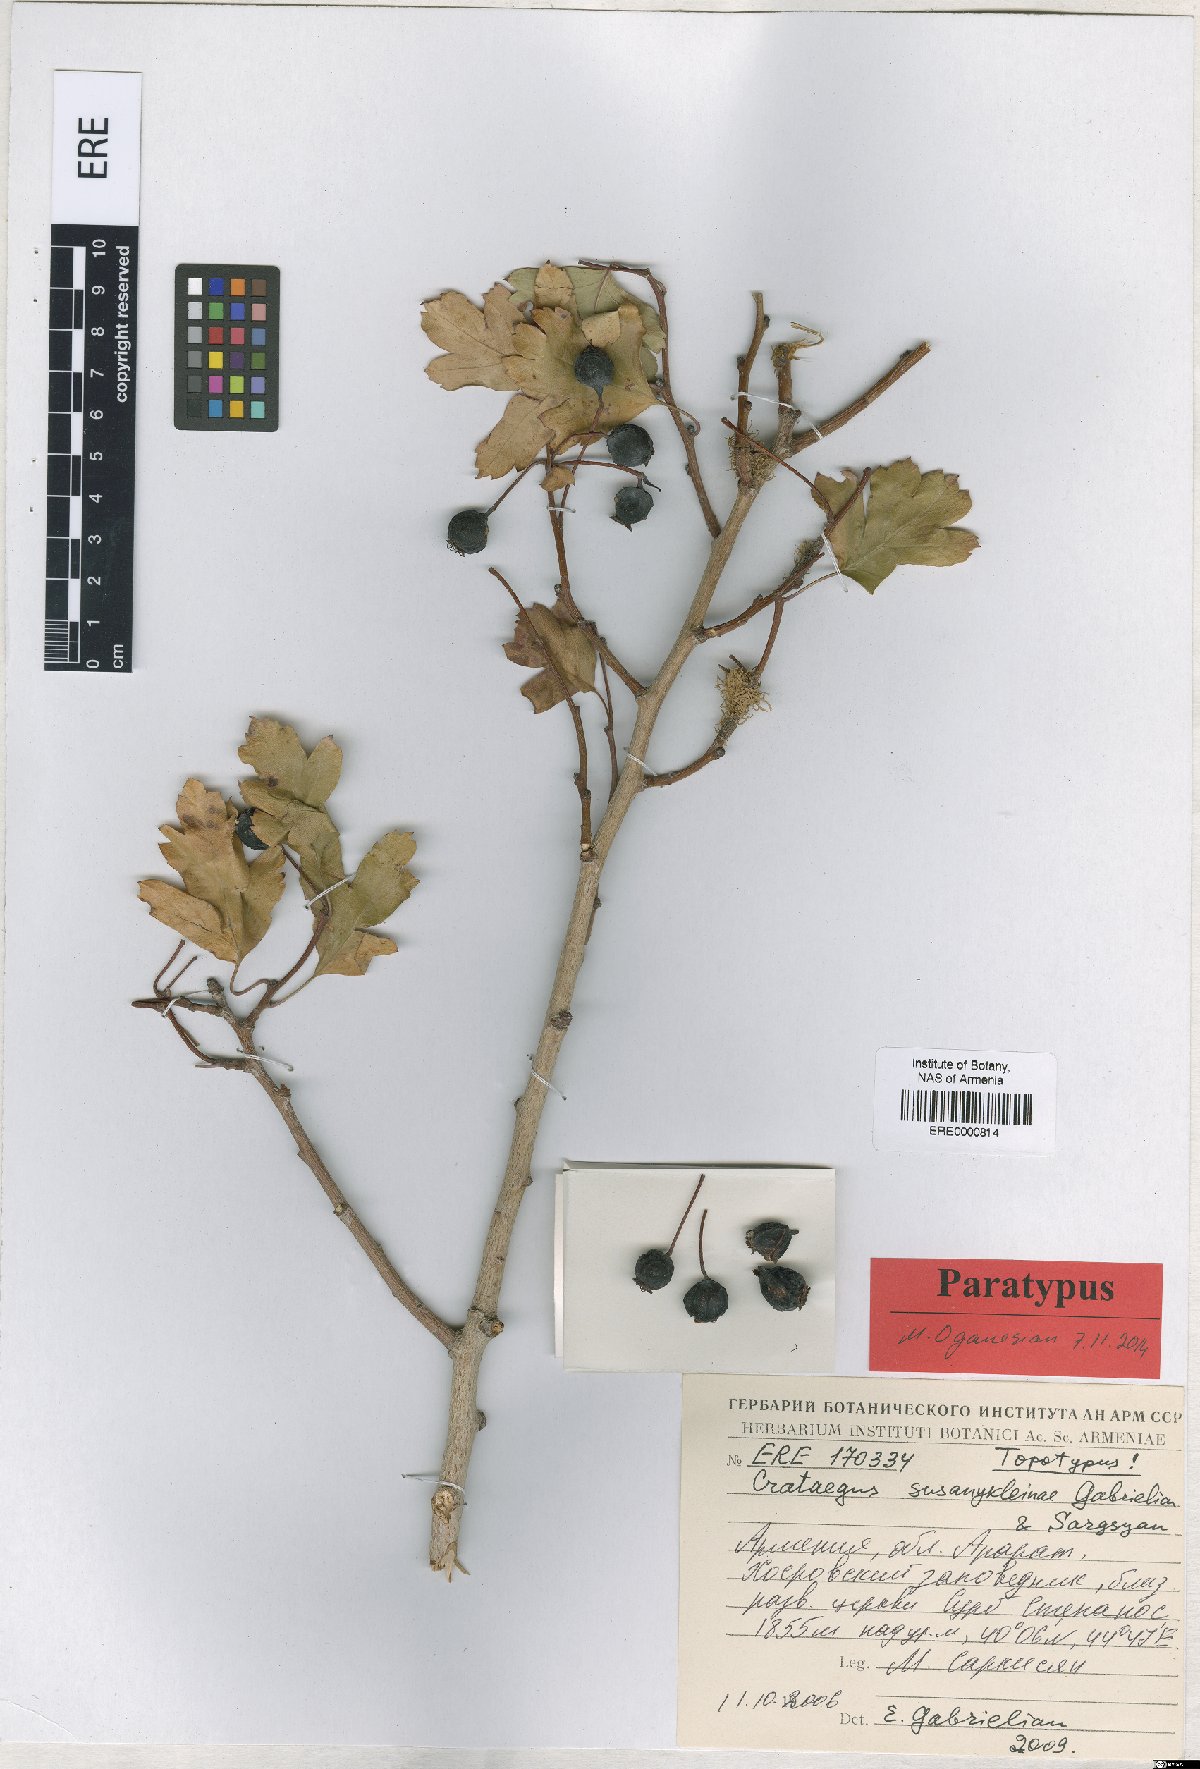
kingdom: Plantae
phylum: Tracheophyta
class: Magnoliopsida
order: Rosales
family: Rosaceae
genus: Crataegus
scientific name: Crataegus
